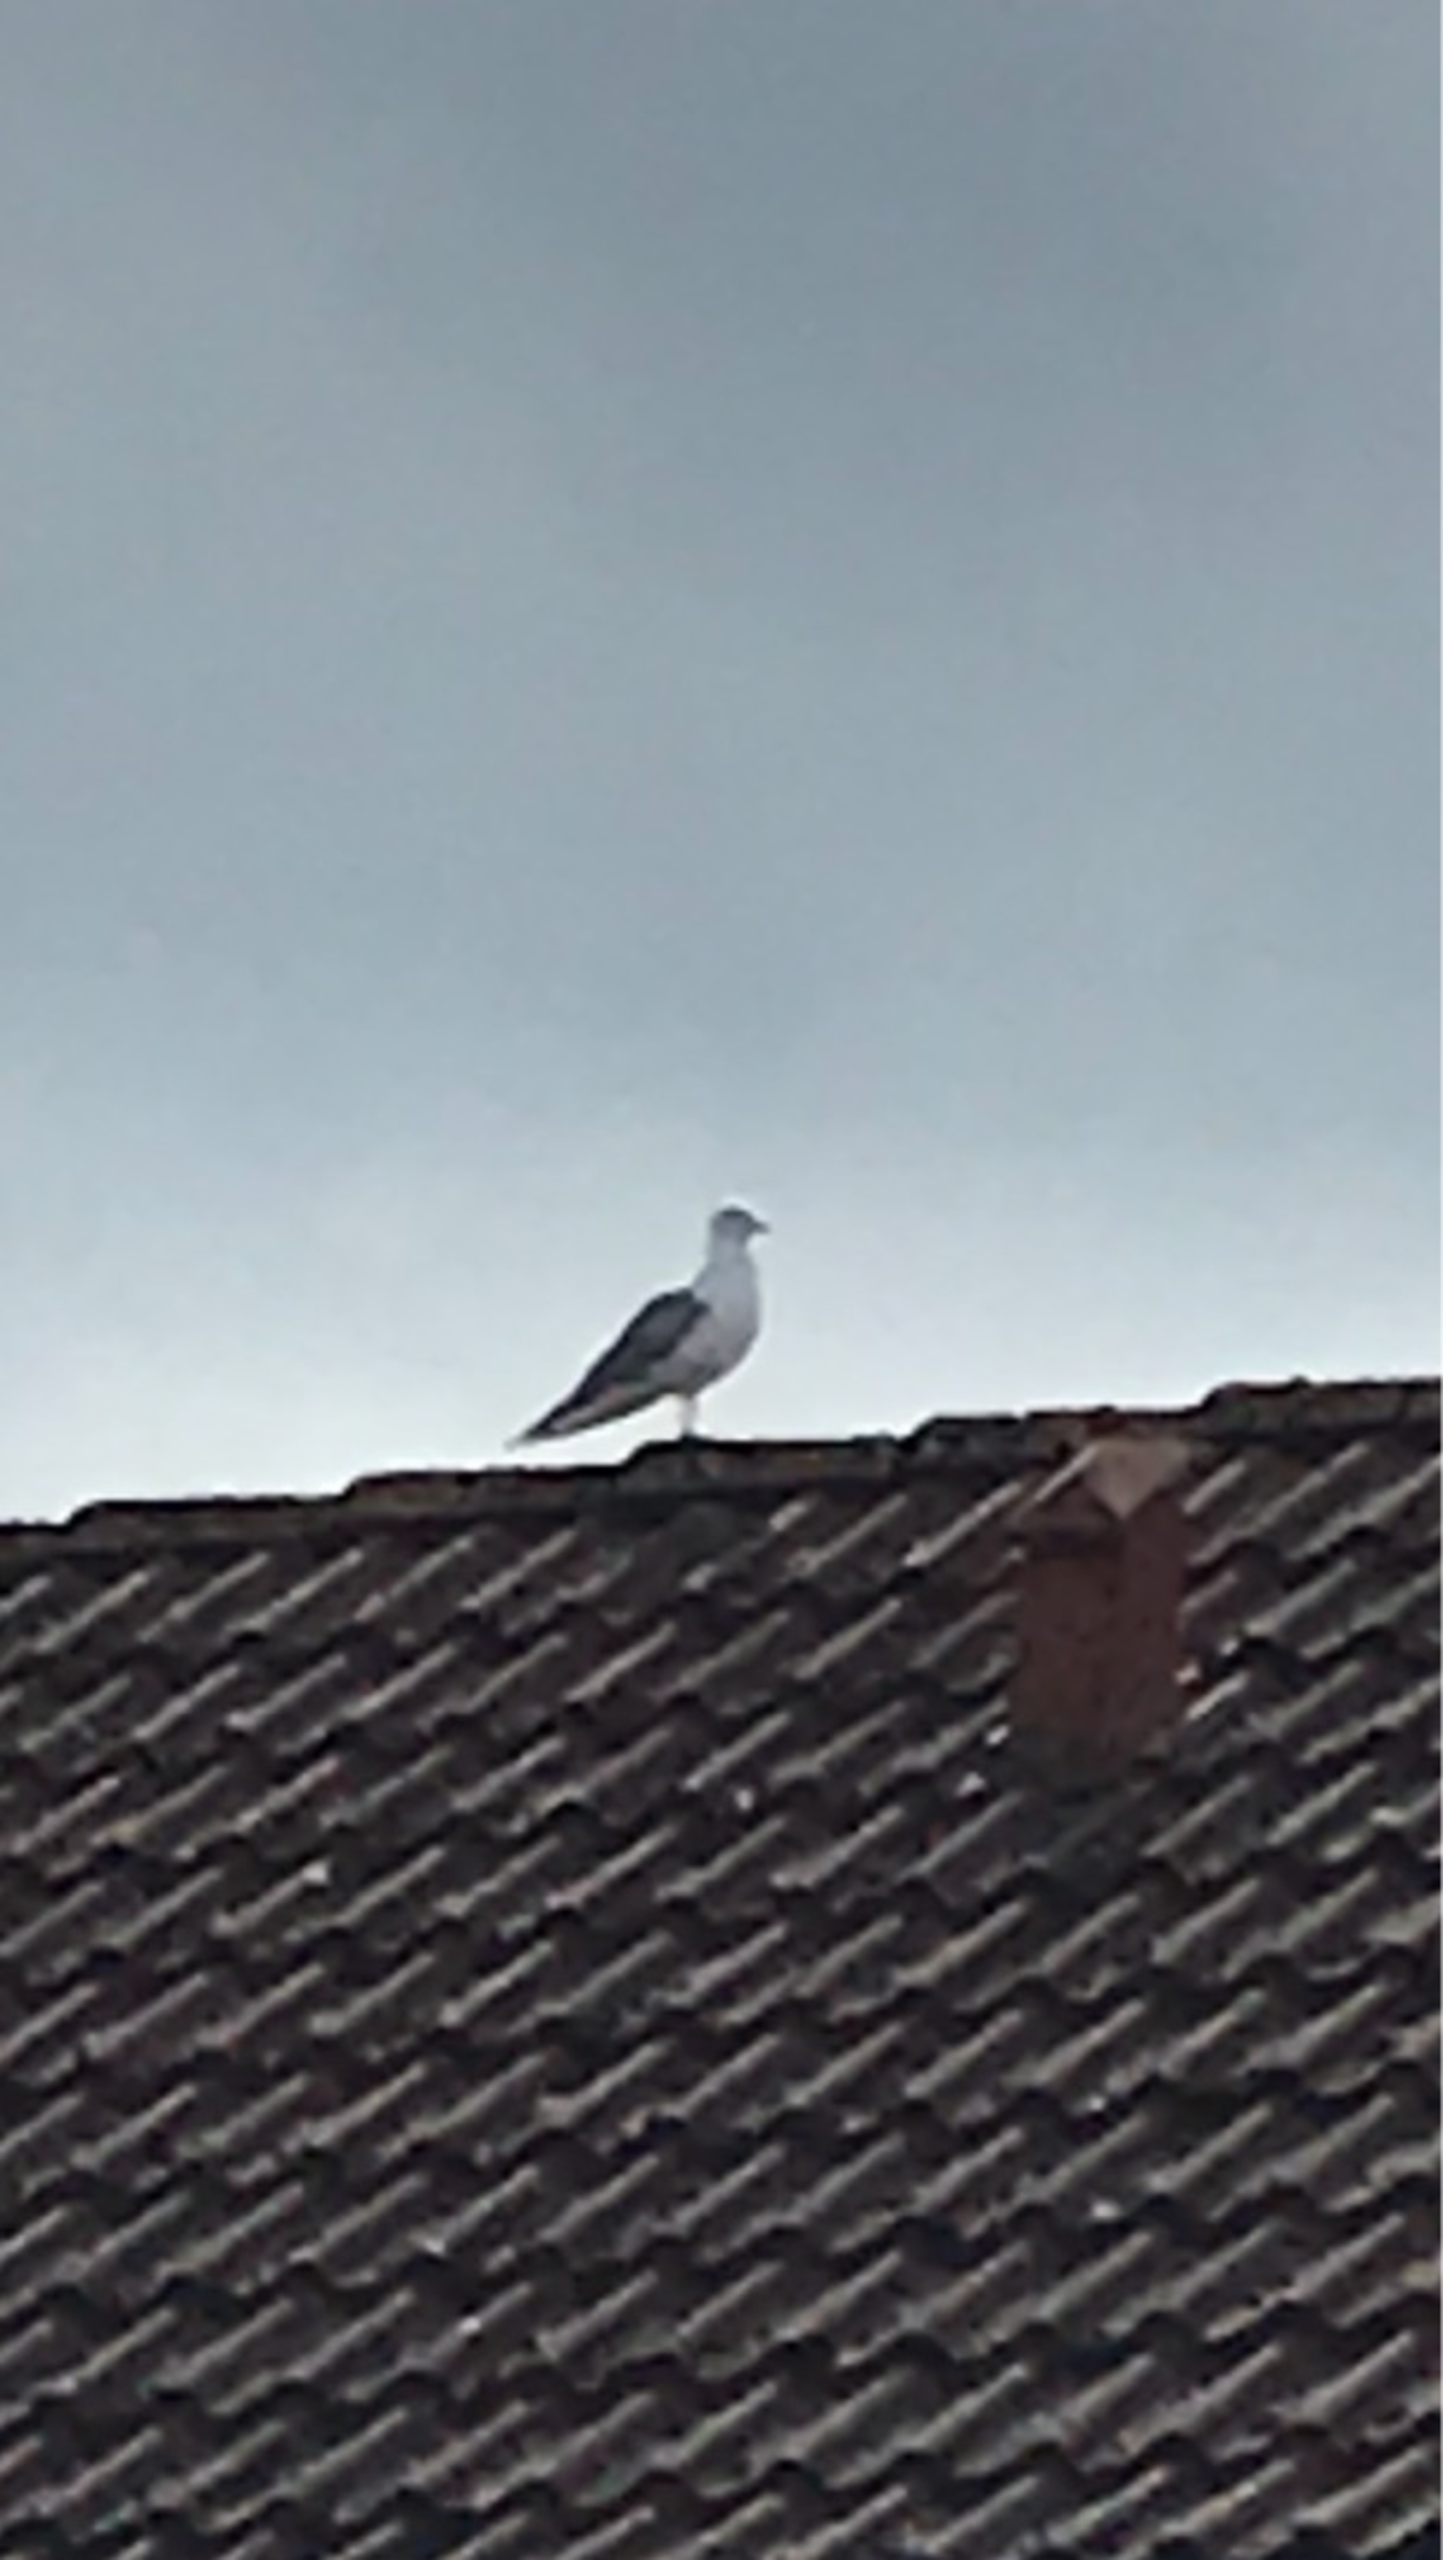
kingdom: Animalia
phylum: Chordata
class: Aves
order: Charadriiformes
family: Laridae
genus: Larus
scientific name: Larus argentatus
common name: Sølvmåge
